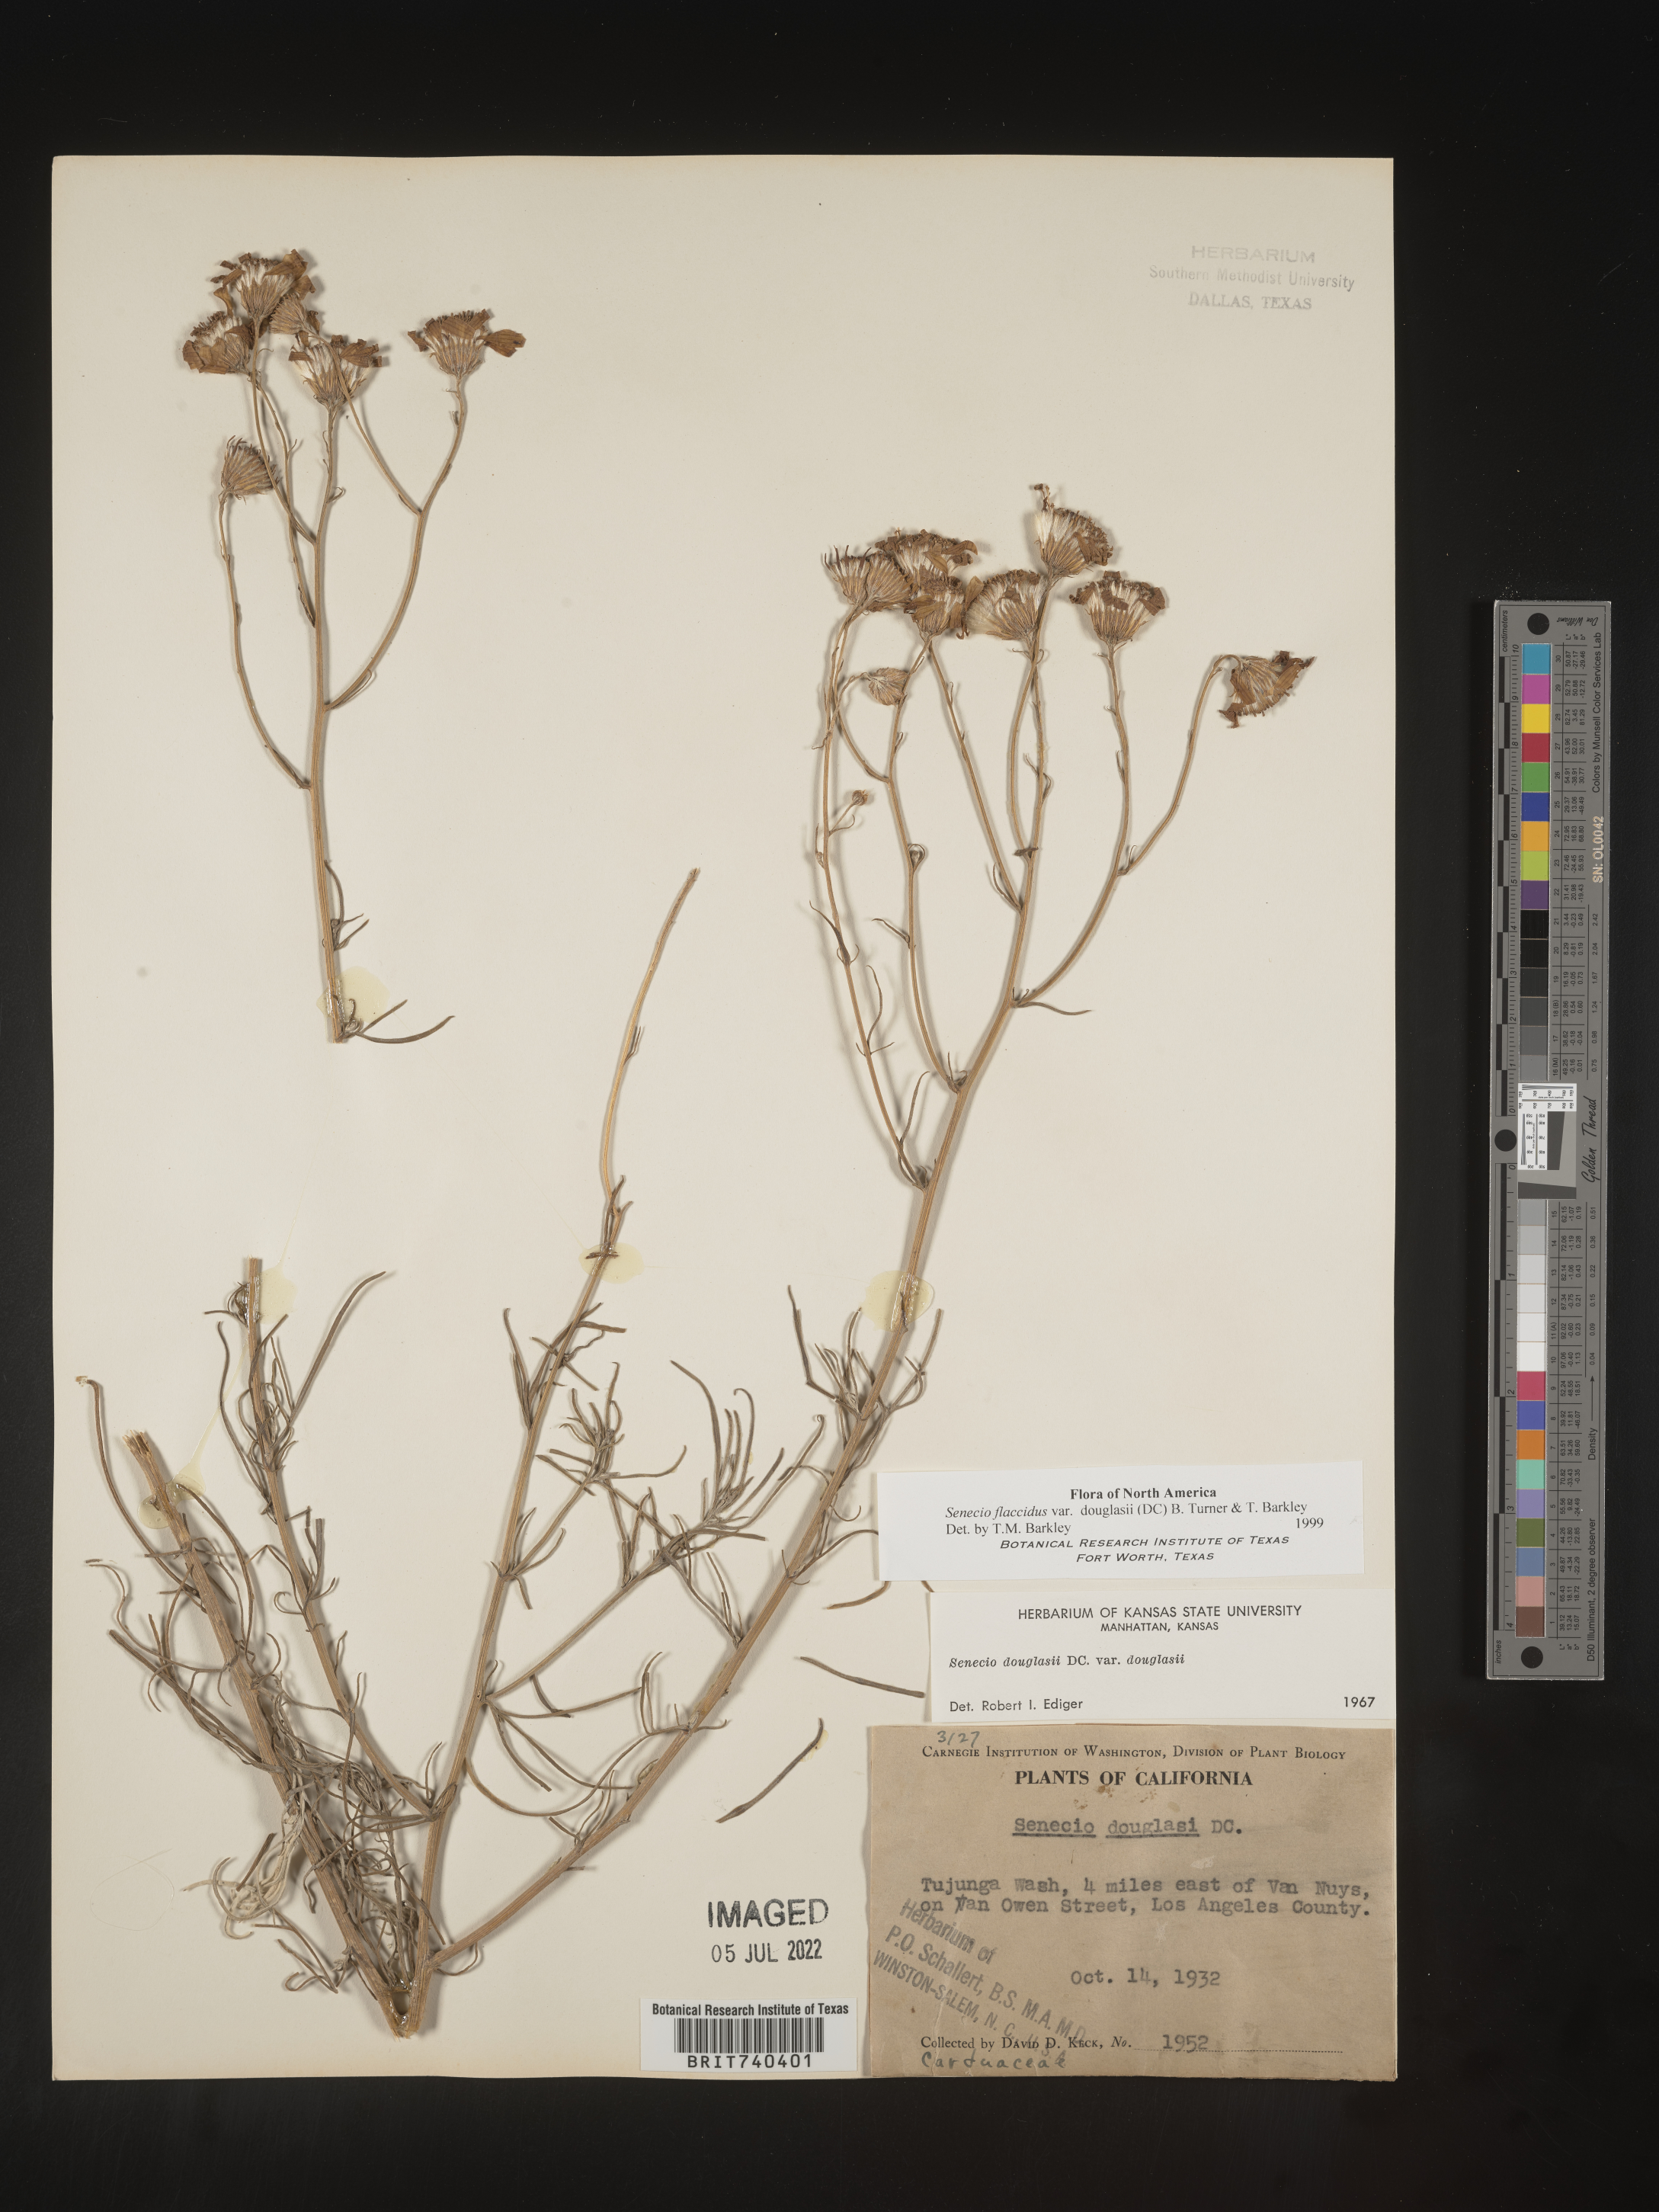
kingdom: Plantae
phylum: Tracheophyta
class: Magnoliopsida
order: Asterales
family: Asteraceae
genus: Senecio
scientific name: Senecio flaccidus
